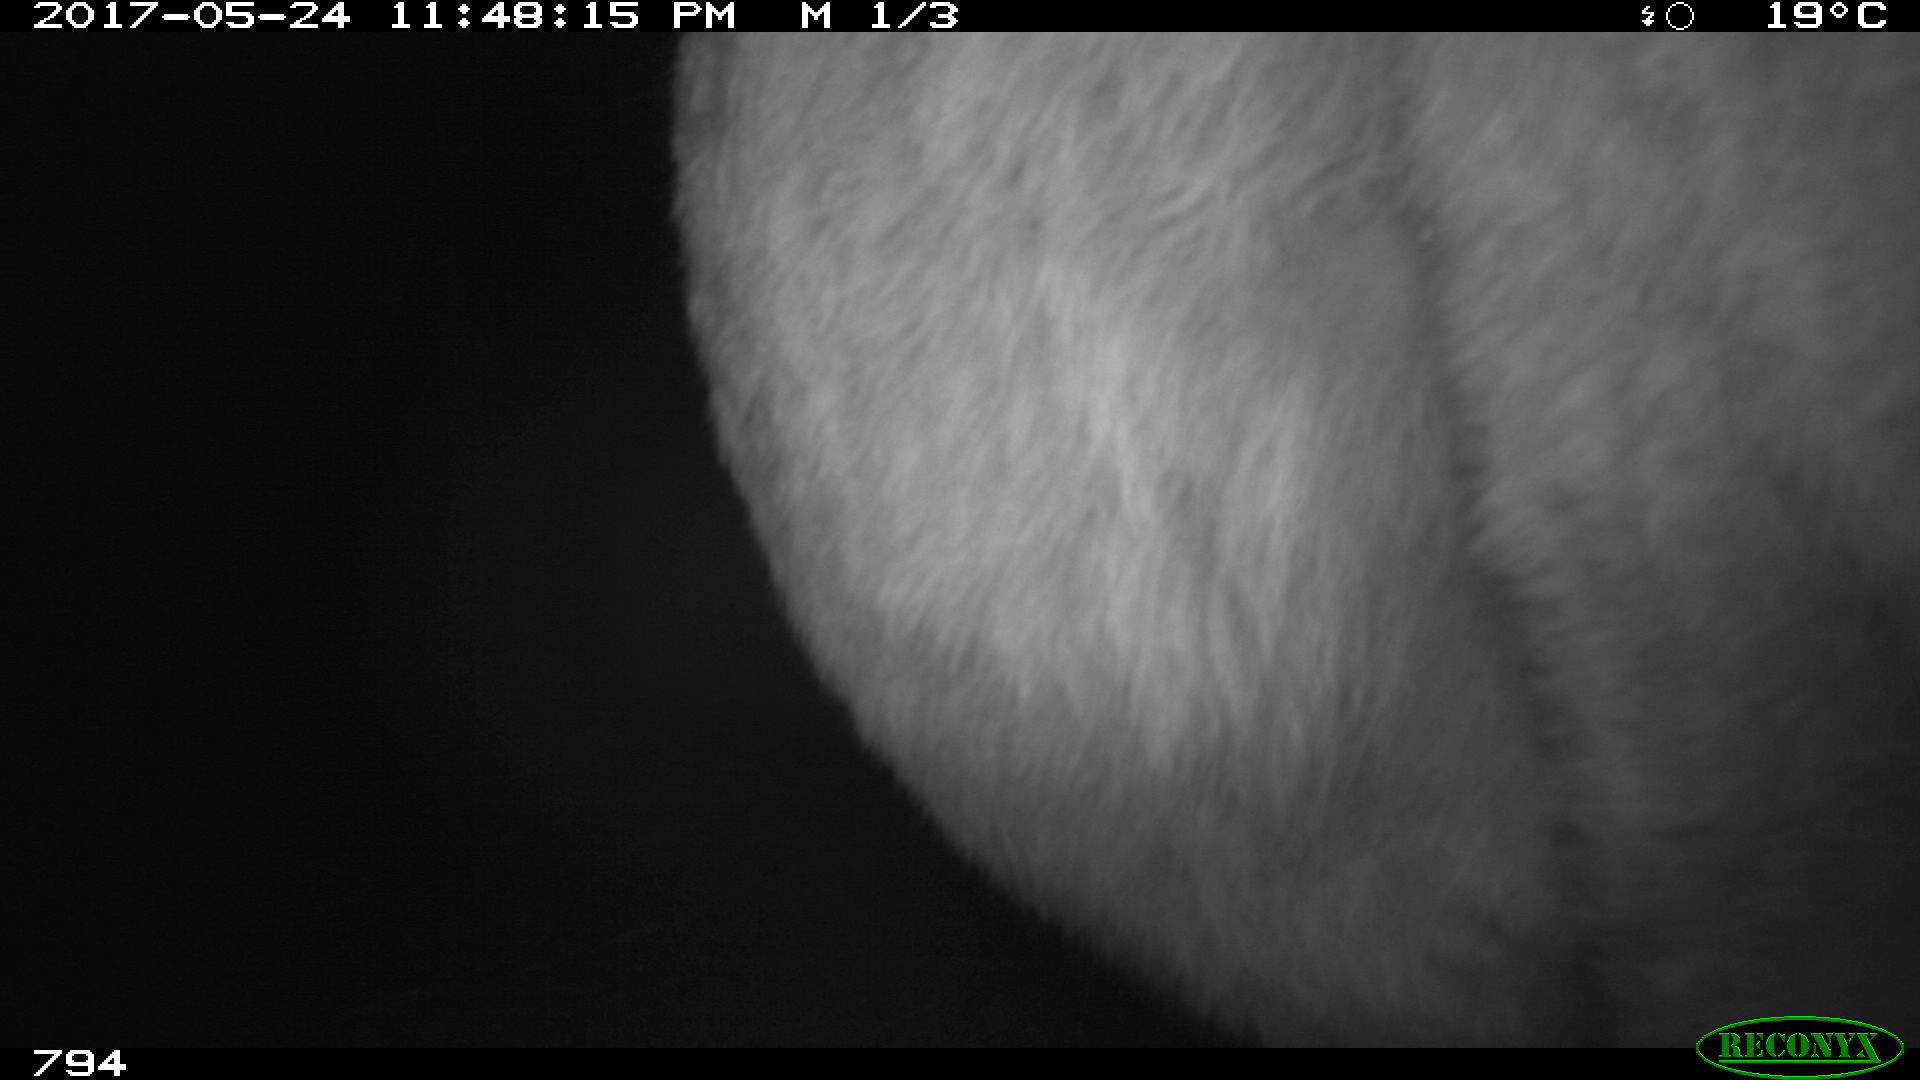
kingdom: Animalia
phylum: Chordata
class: Mammalia
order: Perissodactyla
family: Equidae
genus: Equus
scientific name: Equus caballus
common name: Horse
